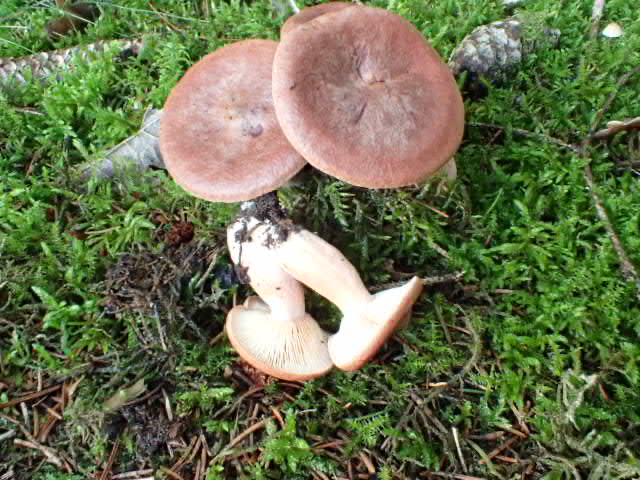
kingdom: Fungi
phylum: Basidiomycota
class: Agaricomycetes
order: Russulales
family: Russulaceae
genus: Lactarius
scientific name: Lactarius rufus
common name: rødbrun mælkehat
